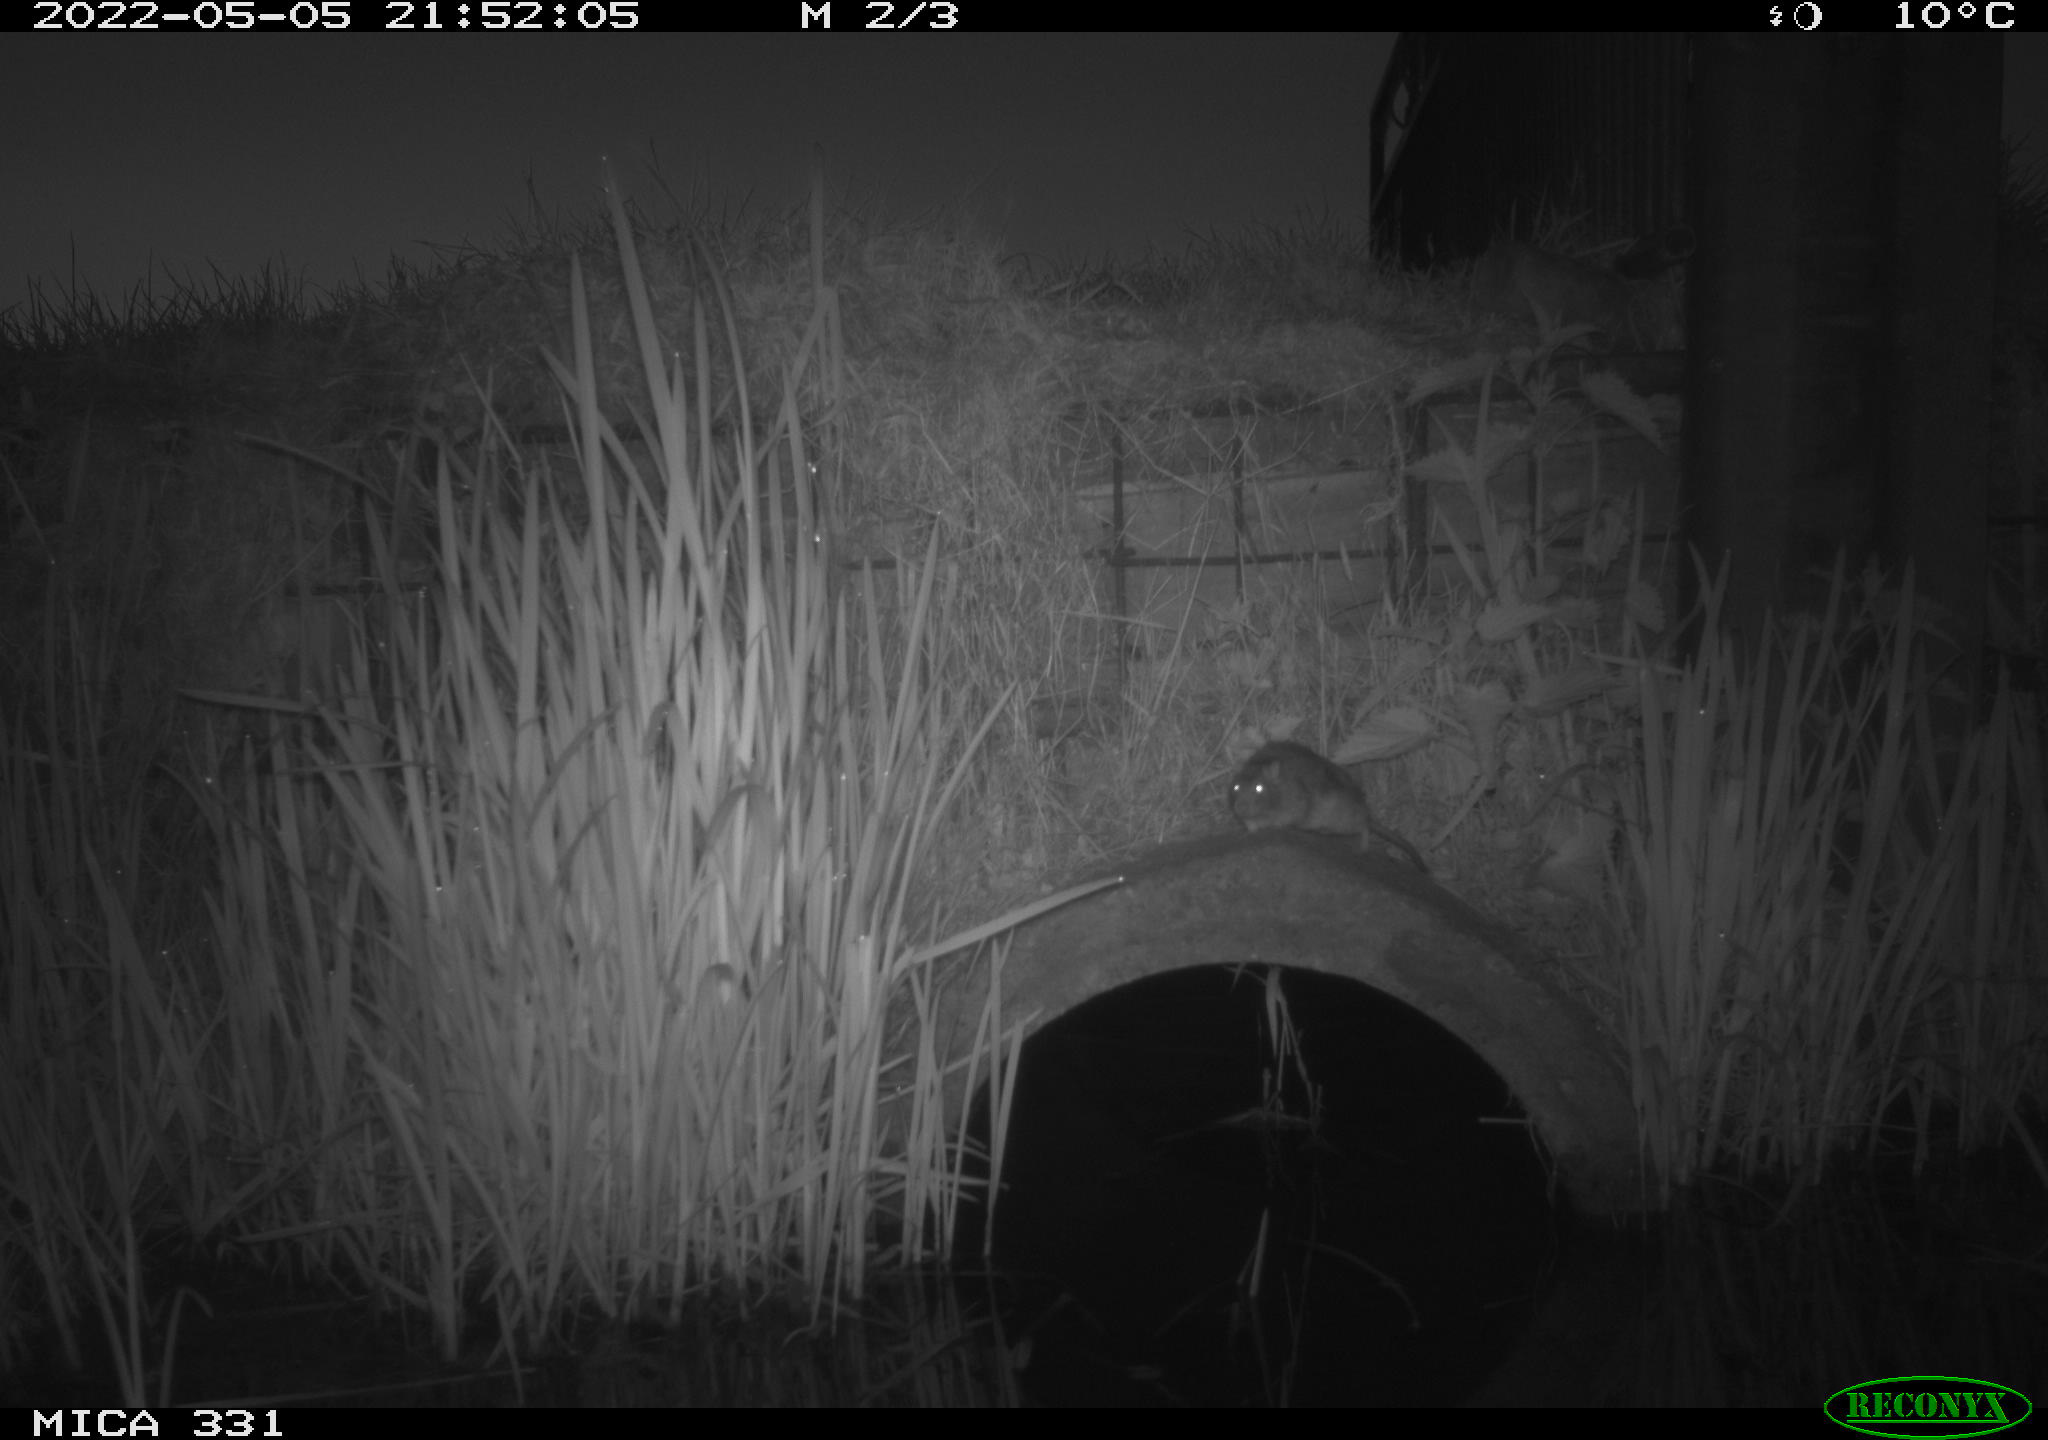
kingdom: Animalia
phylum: Chordata
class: Mammalia
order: Rodentia
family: Muridae
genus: Rattus
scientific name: Rattus norvegicus
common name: Brown rat
